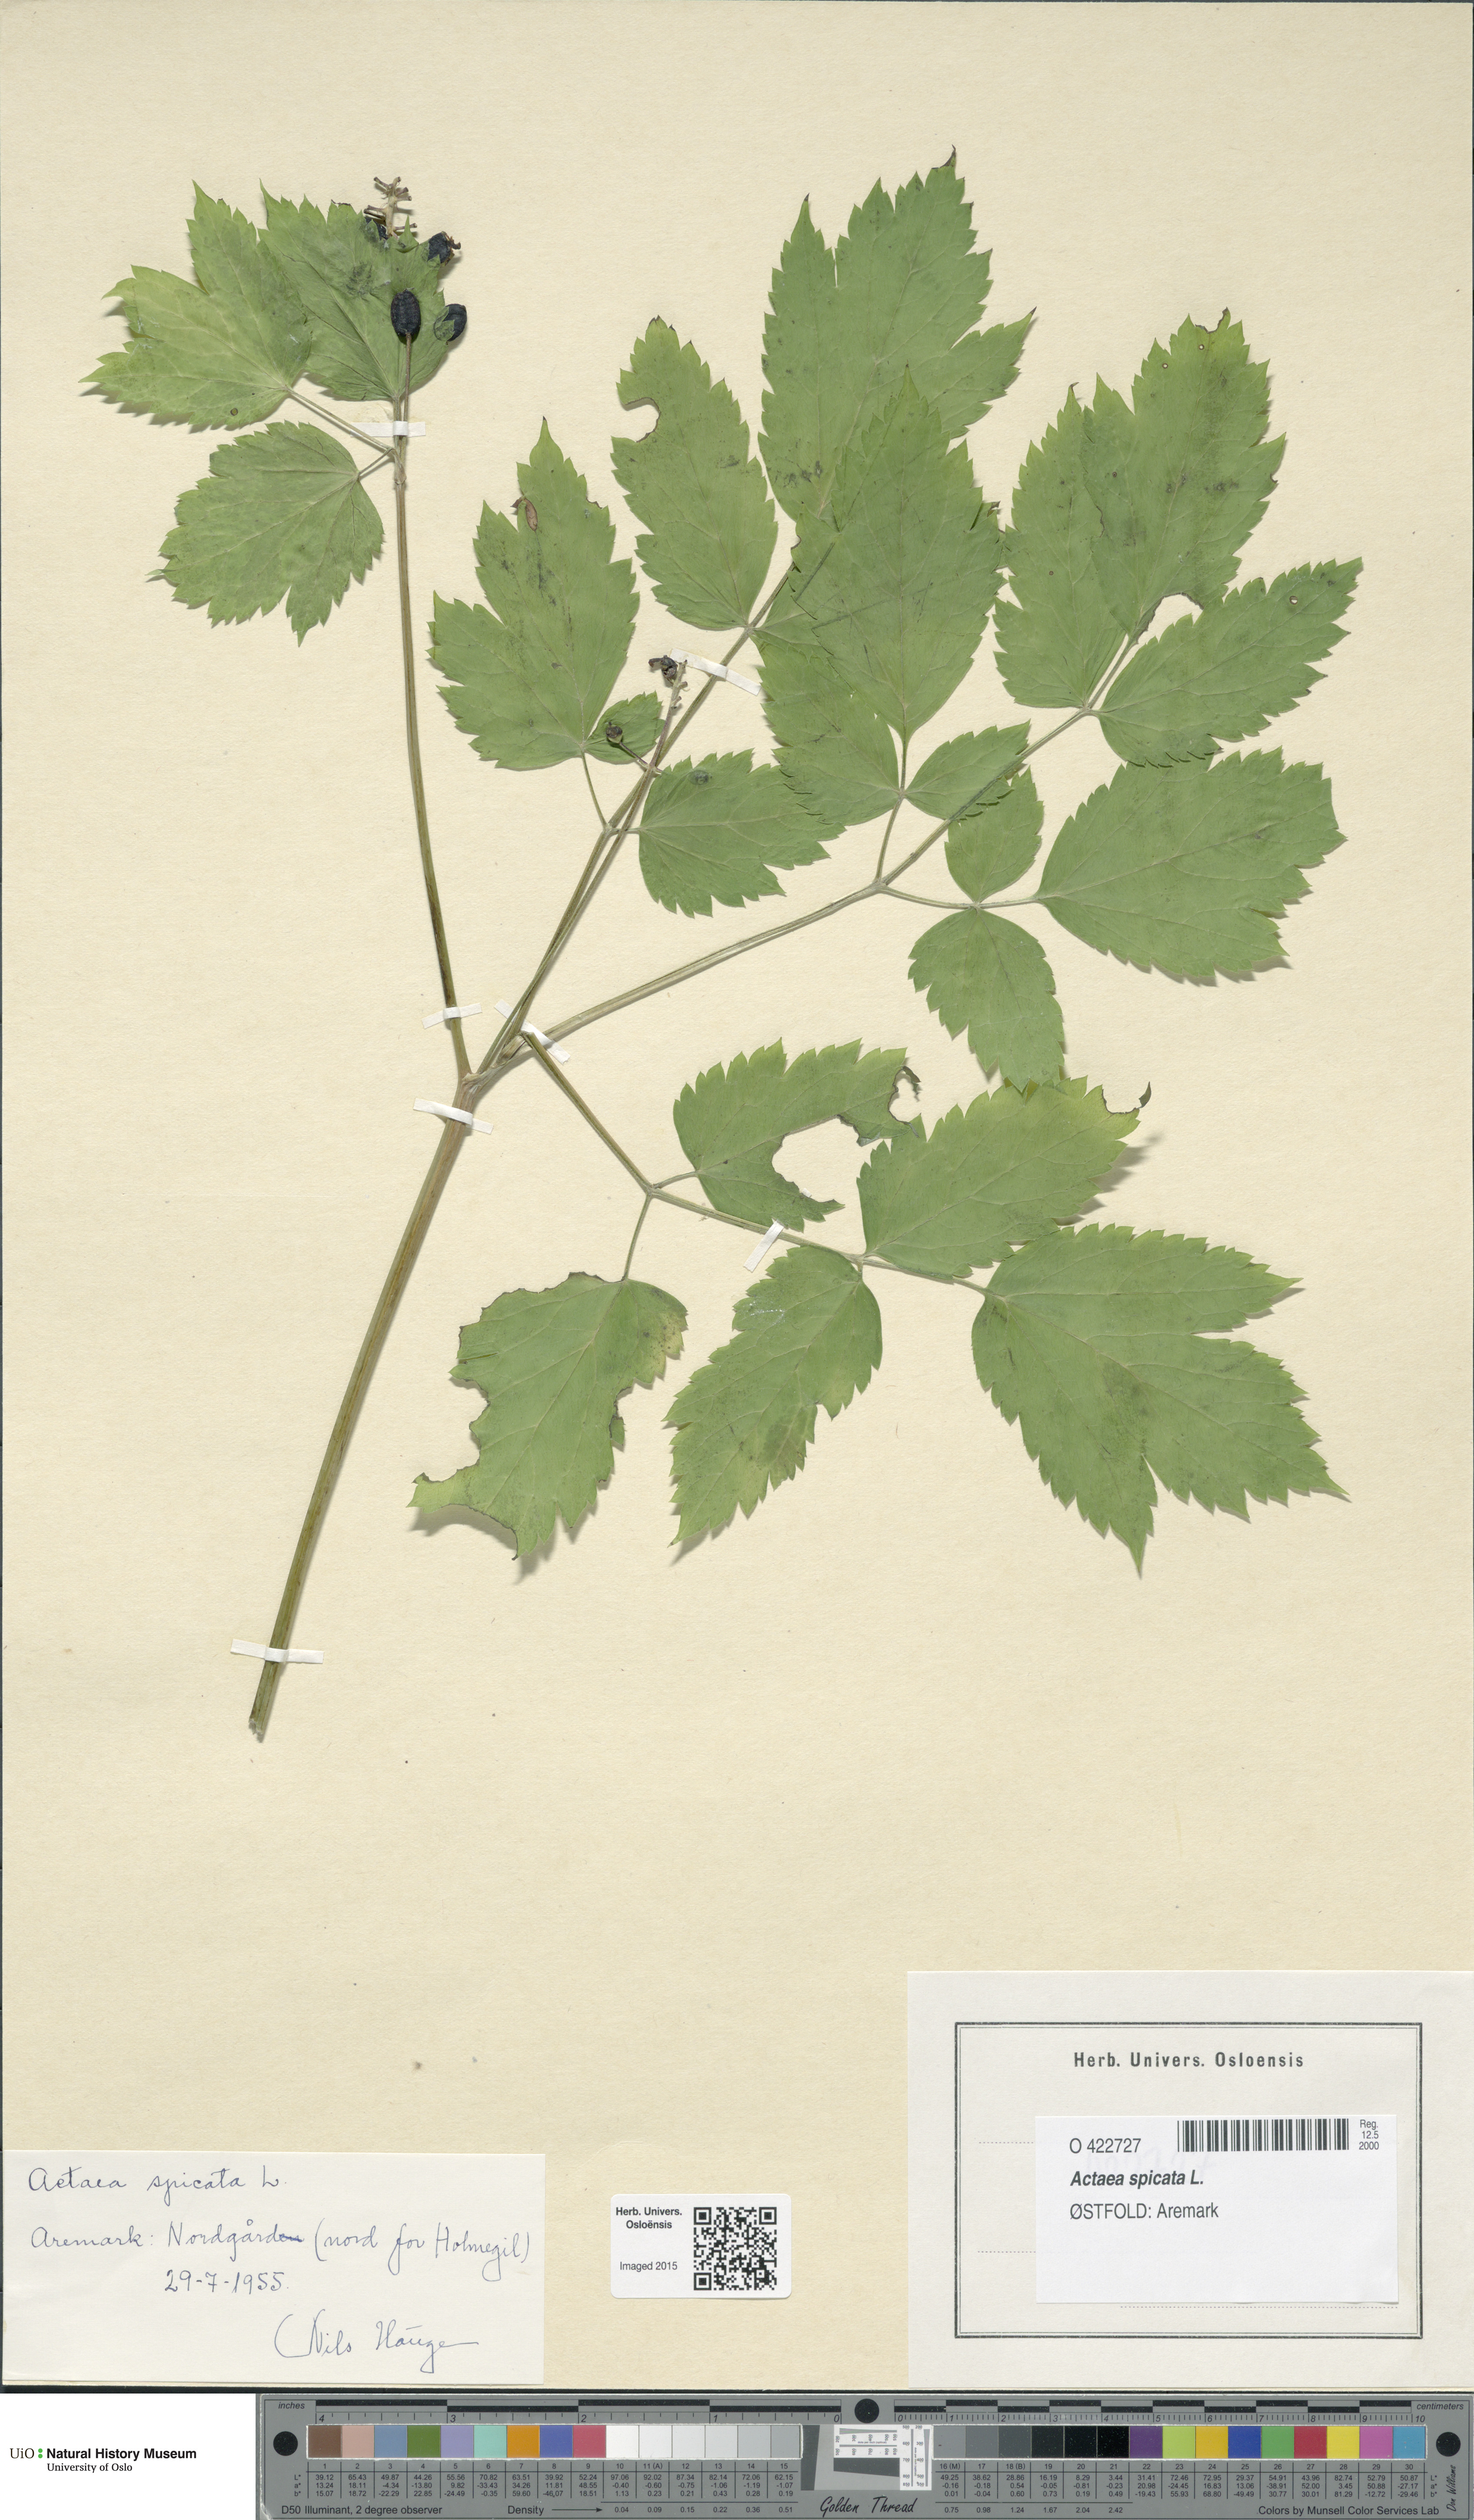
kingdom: Plantae
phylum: Tracheophyta
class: Magnoliopsida
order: Ranunculales
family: Ranunculaceae
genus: Actaea
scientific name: Actaea spicata
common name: Baneberry
